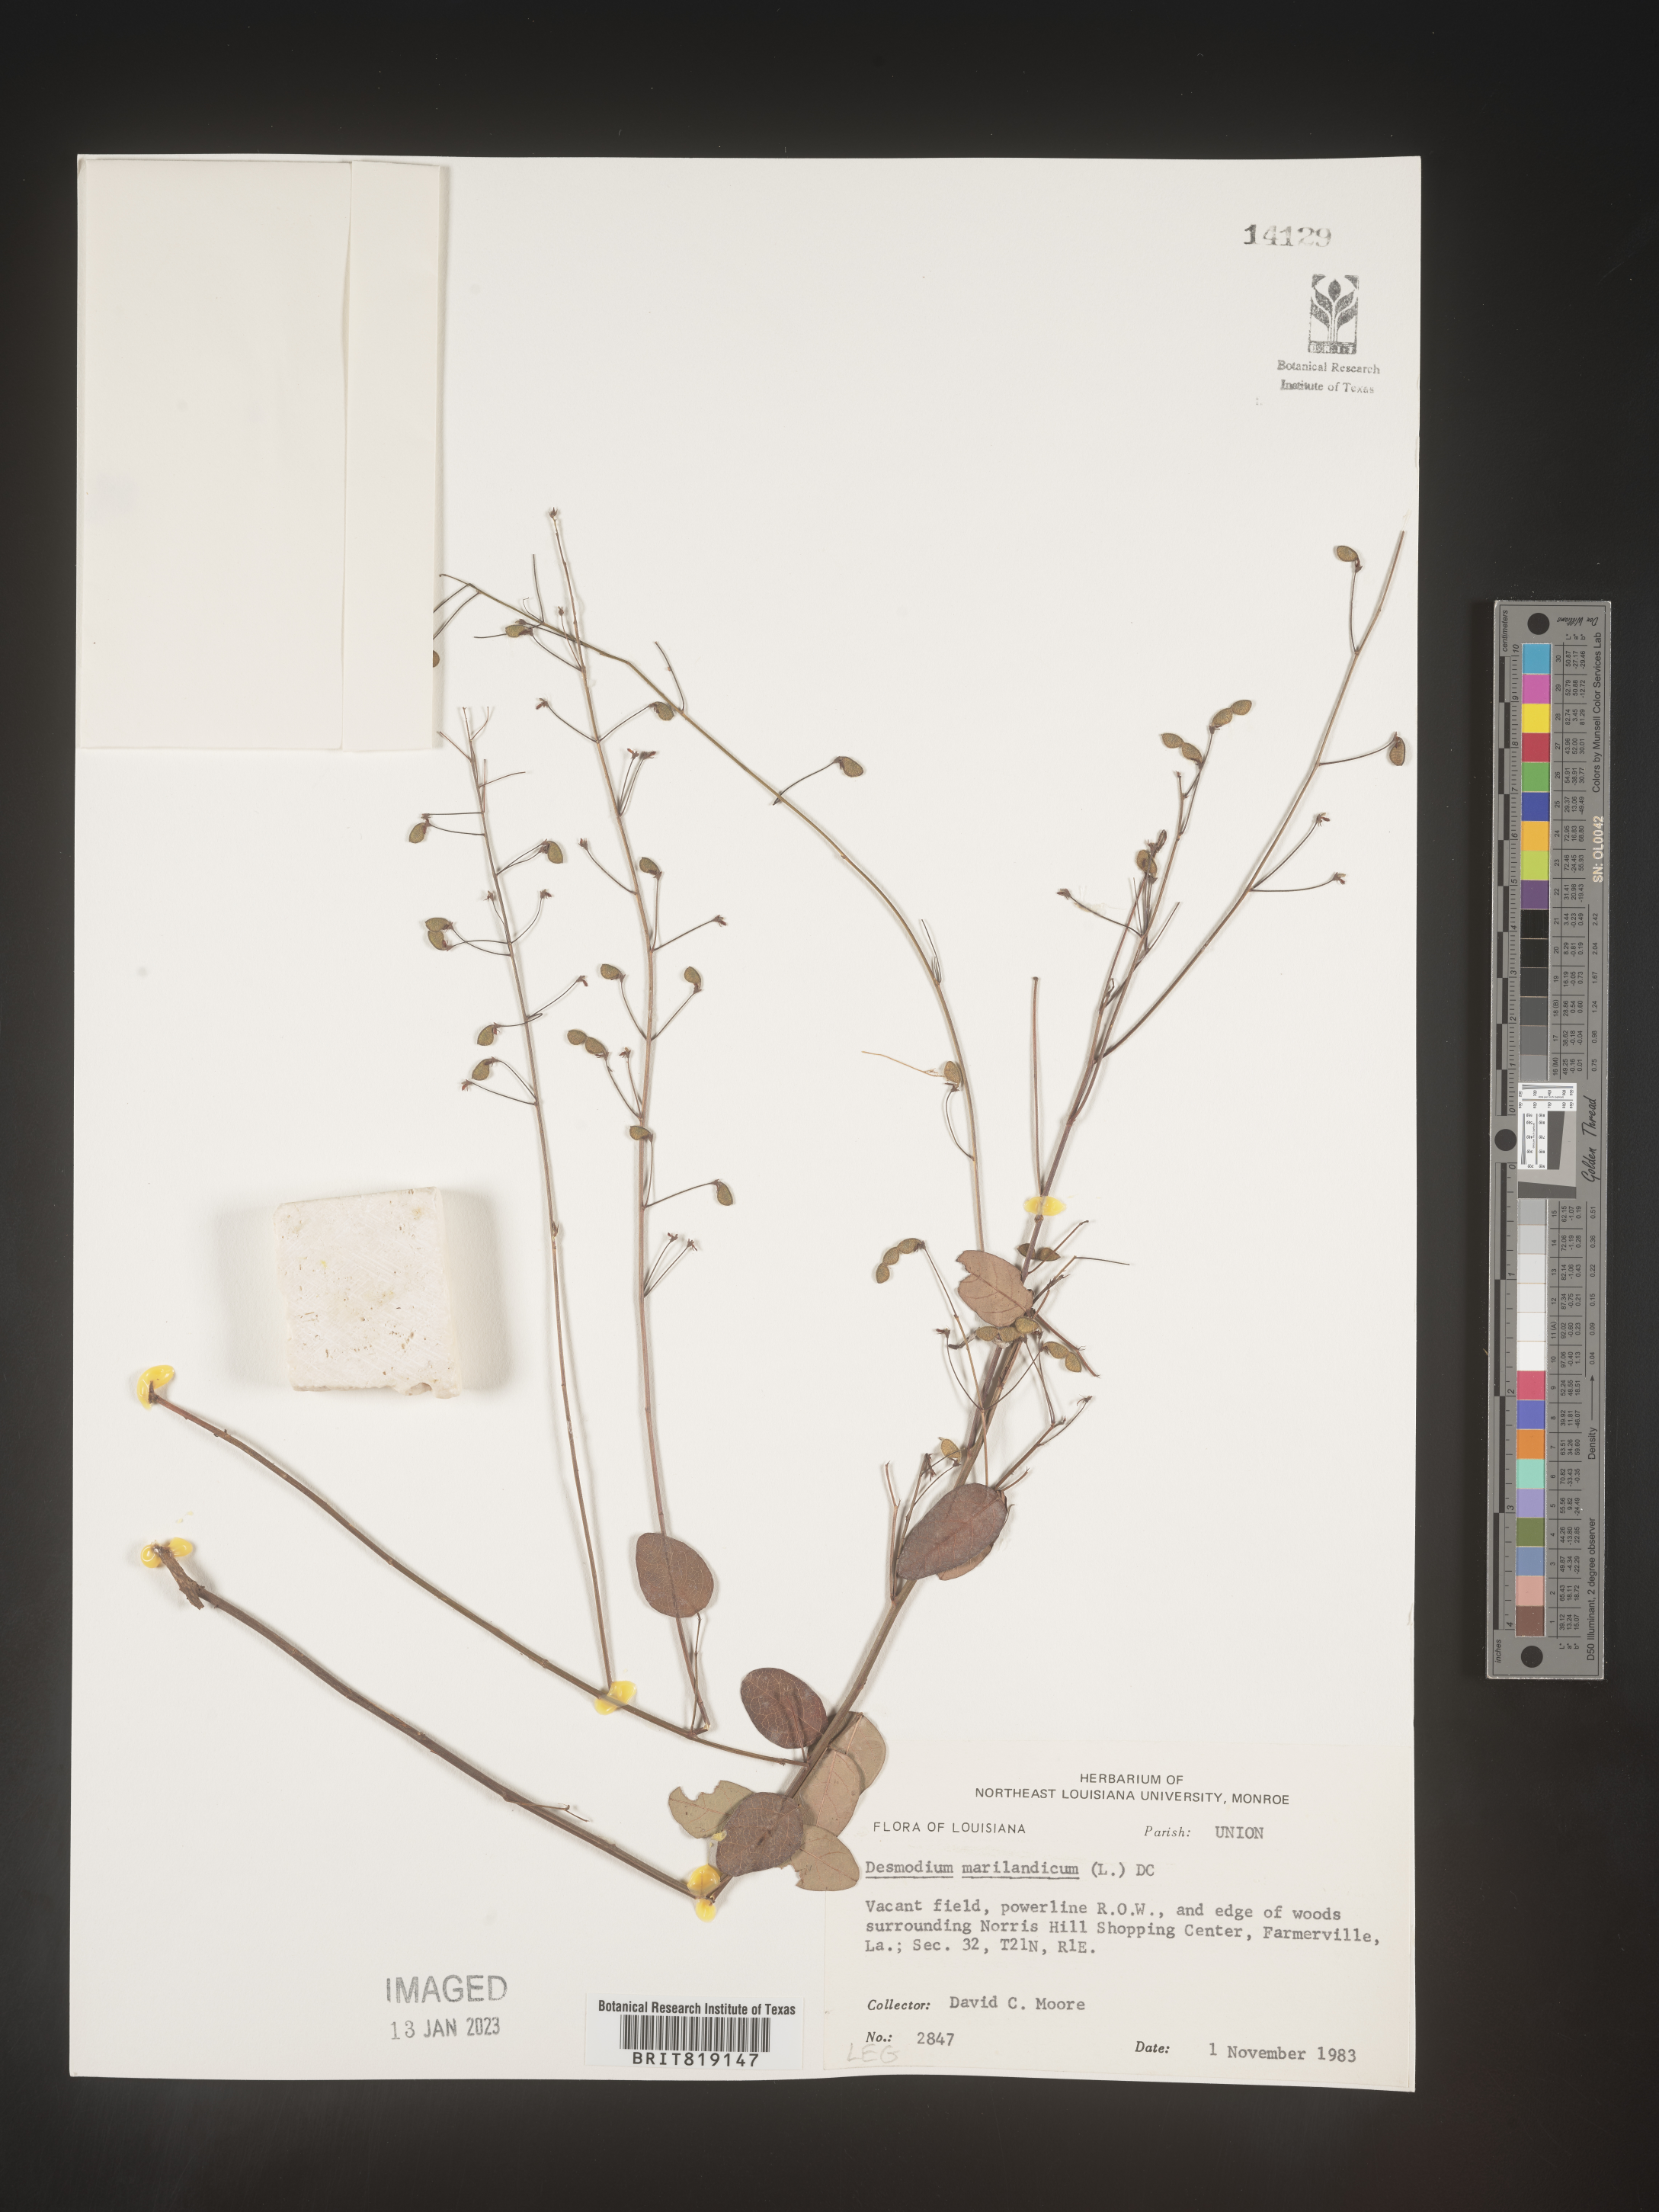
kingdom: Plantae
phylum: Tracheophyta
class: Magnoliopsida
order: Fabales
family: Fabaceae
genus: Desmodium
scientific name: Desmodium marilandicum
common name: Maryland tick-trefoil
